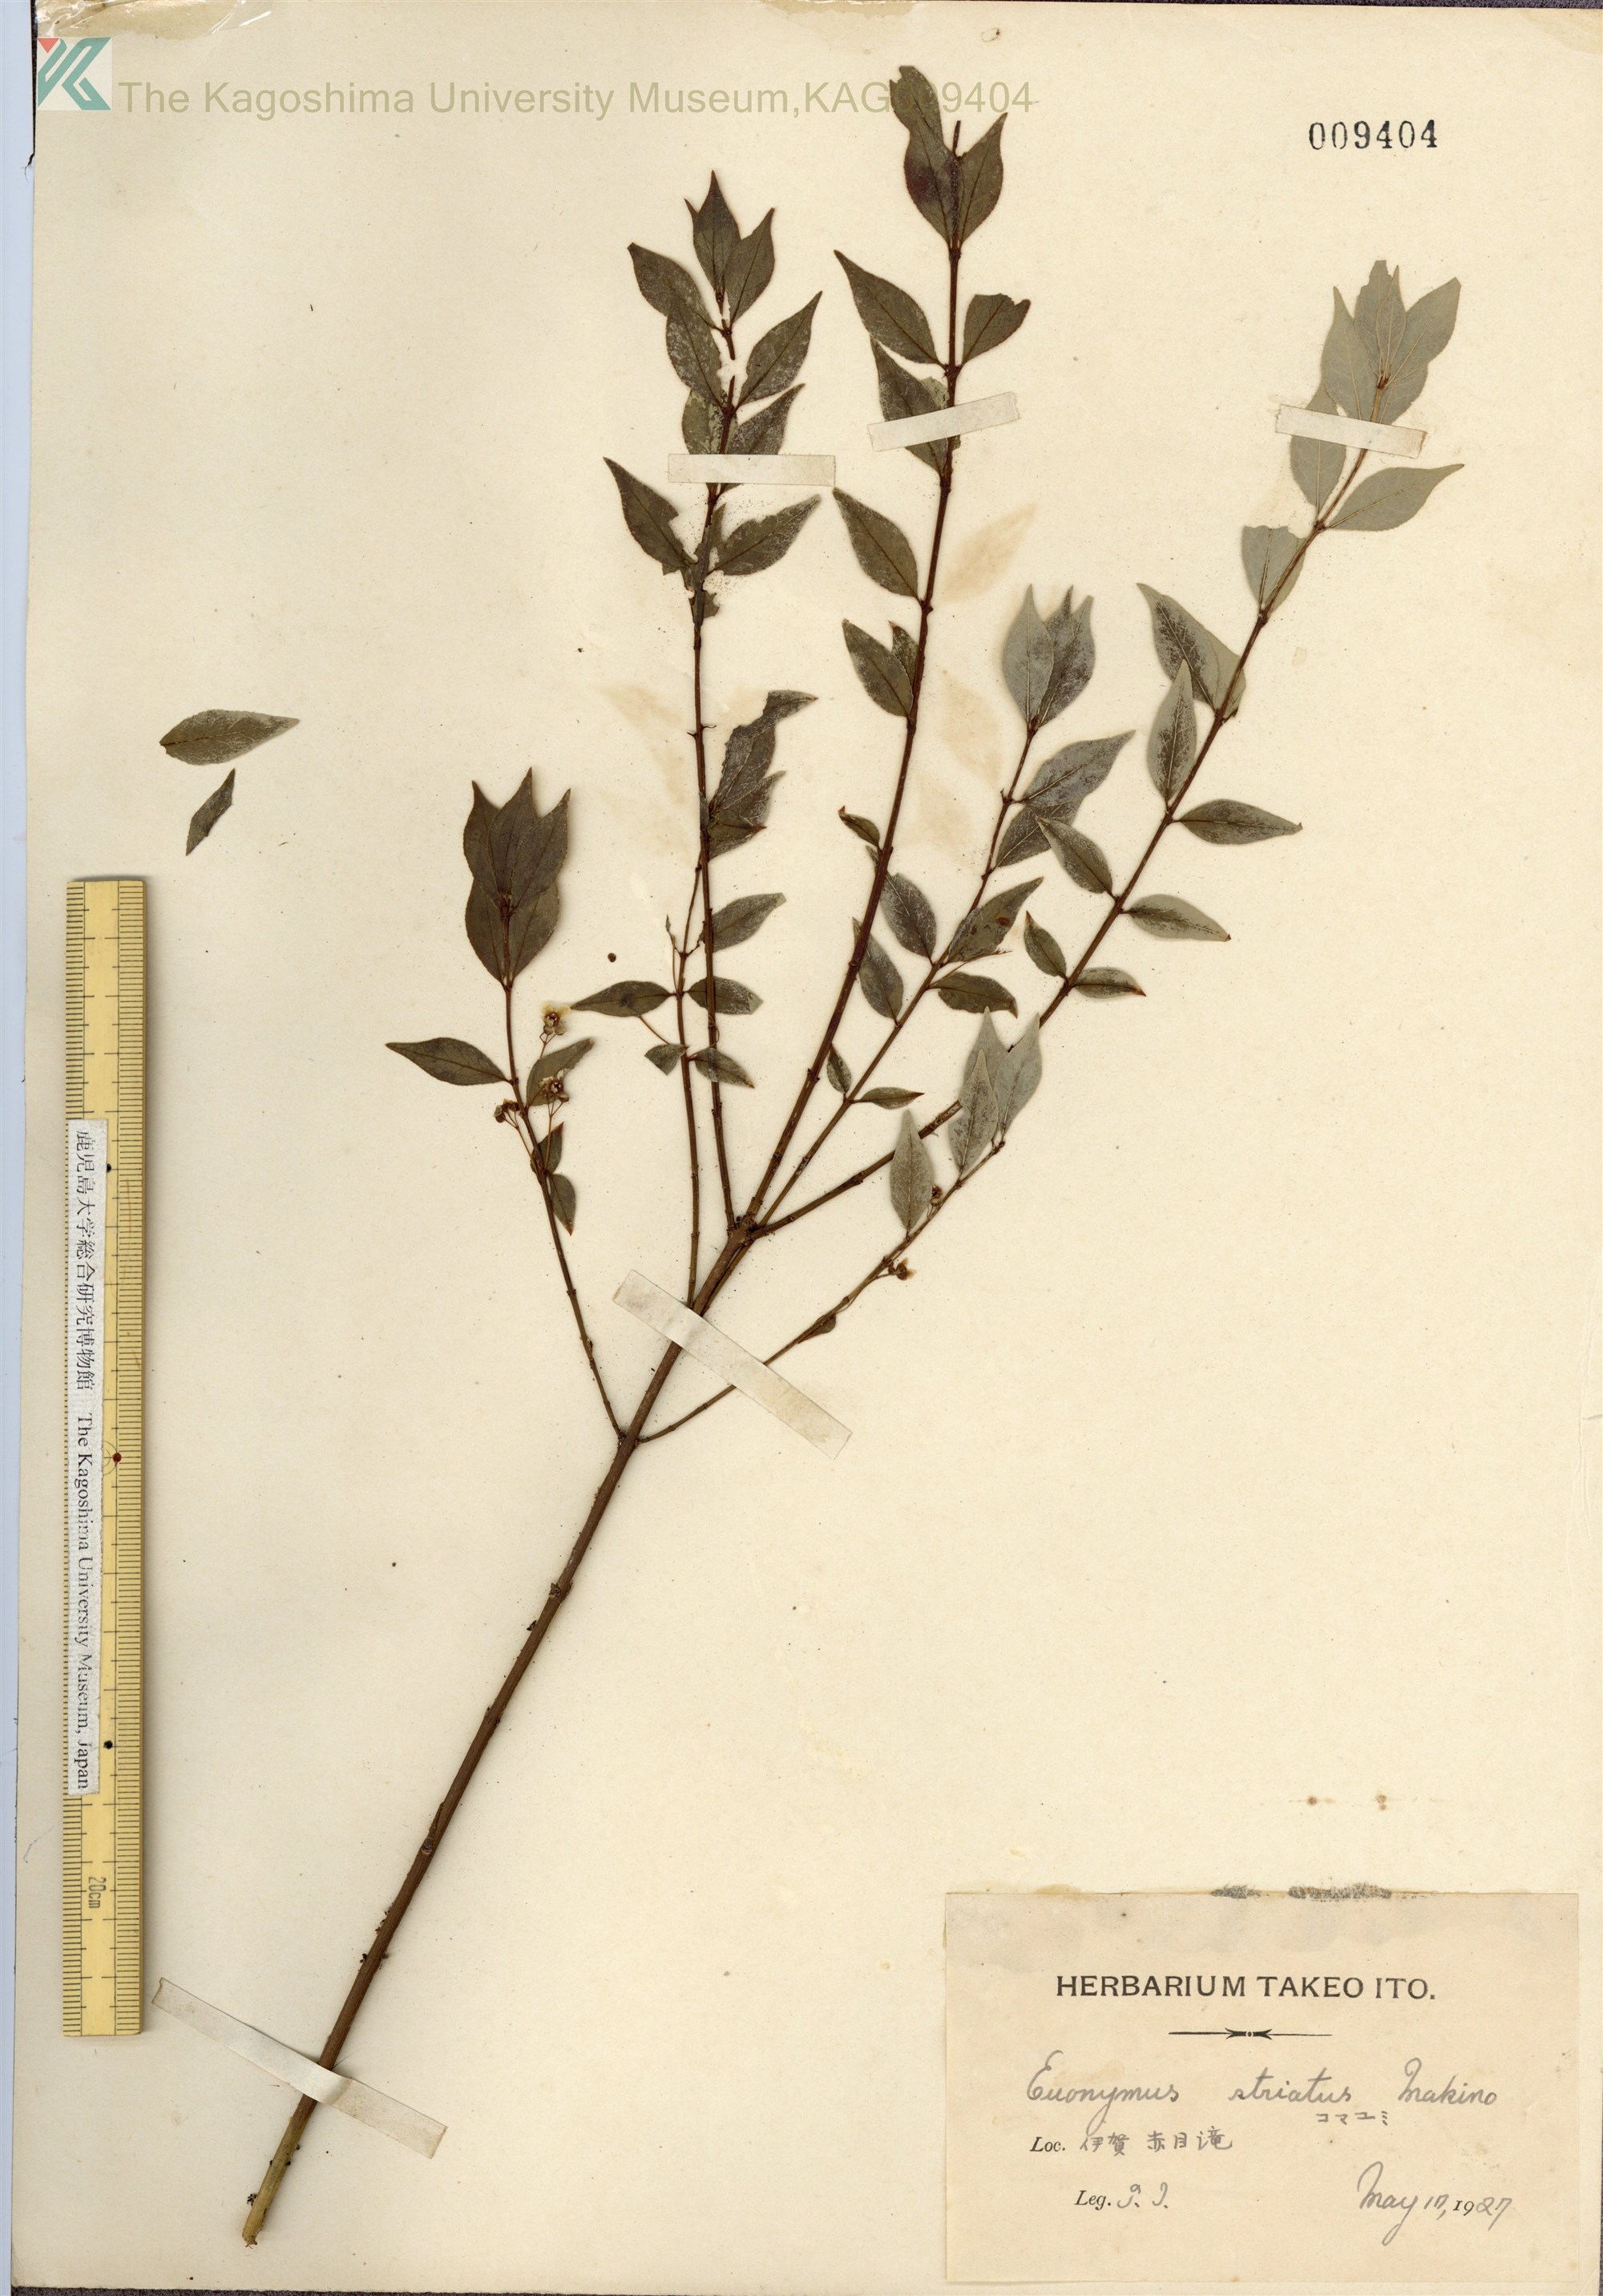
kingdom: Plantae
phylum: Tracheophyta
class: Magnoliopsida
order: Celastrales
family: Celastraceae
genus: Euonymus
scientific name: Euonymus alatus
